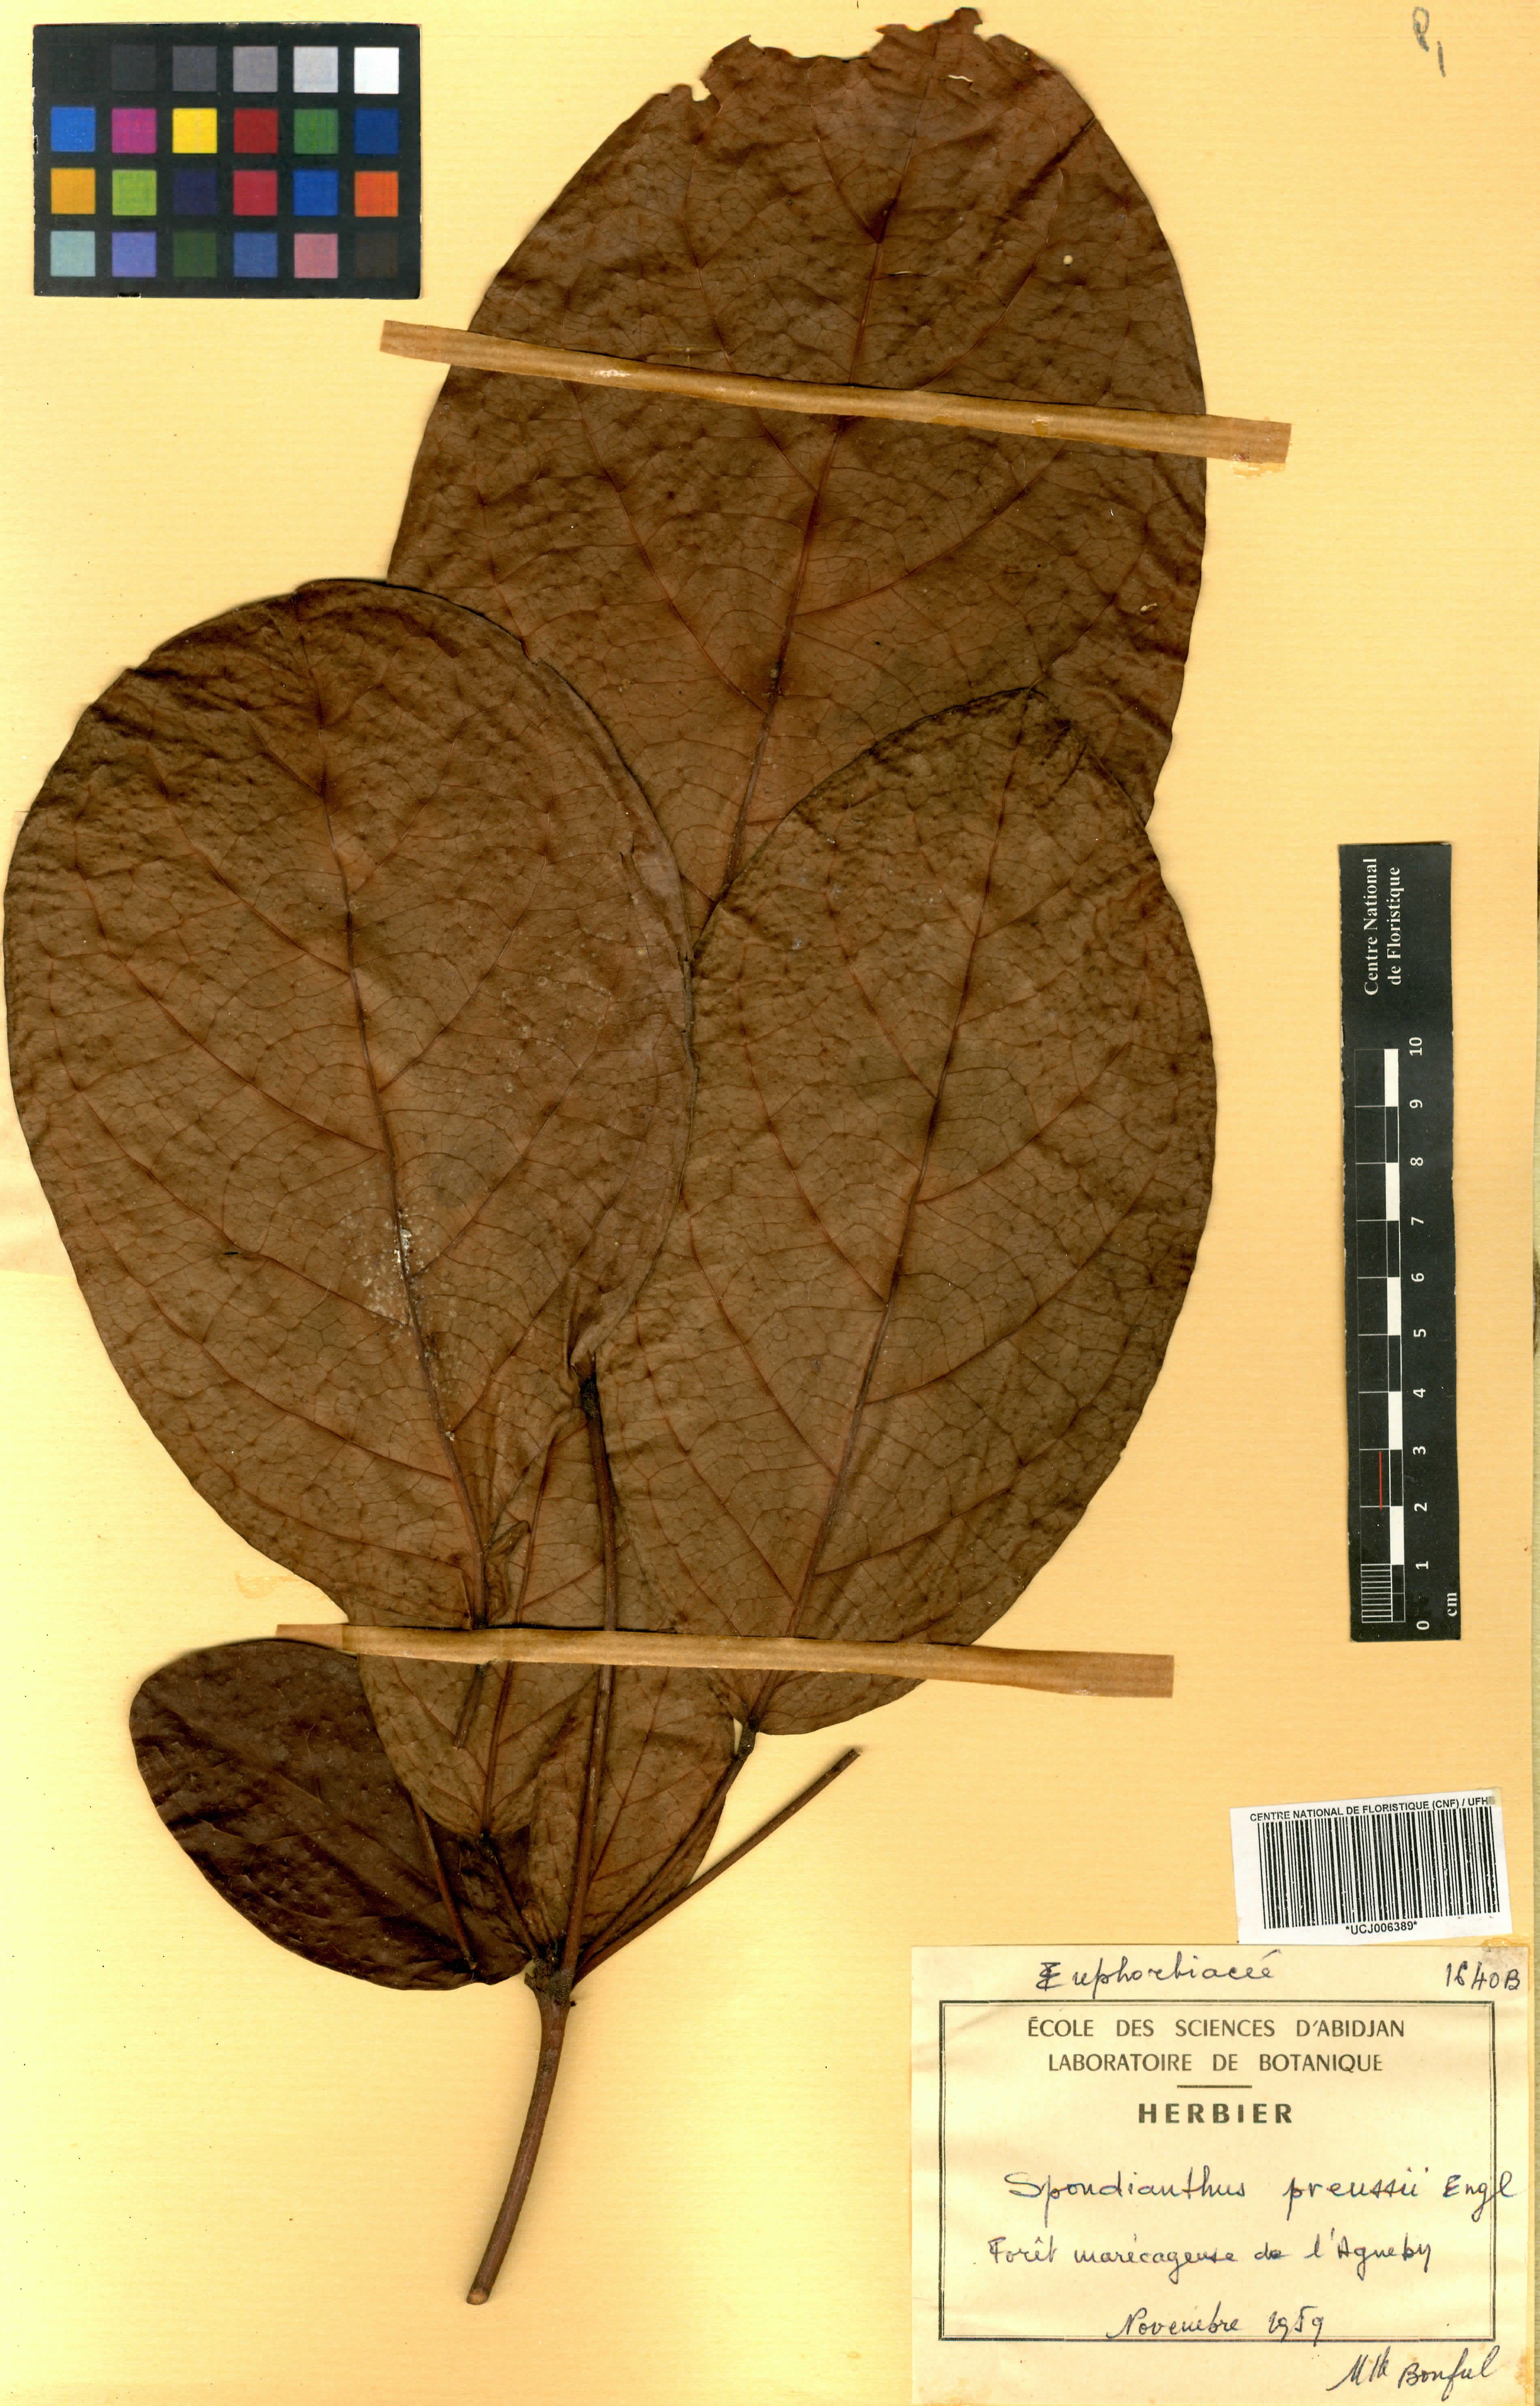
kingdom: Plantae
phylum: Tracheophyta
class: Magnoliopsida
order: Malpighiales
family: Phyllanthaceae
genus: Spondianthus
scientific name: Spondianthus preussii
